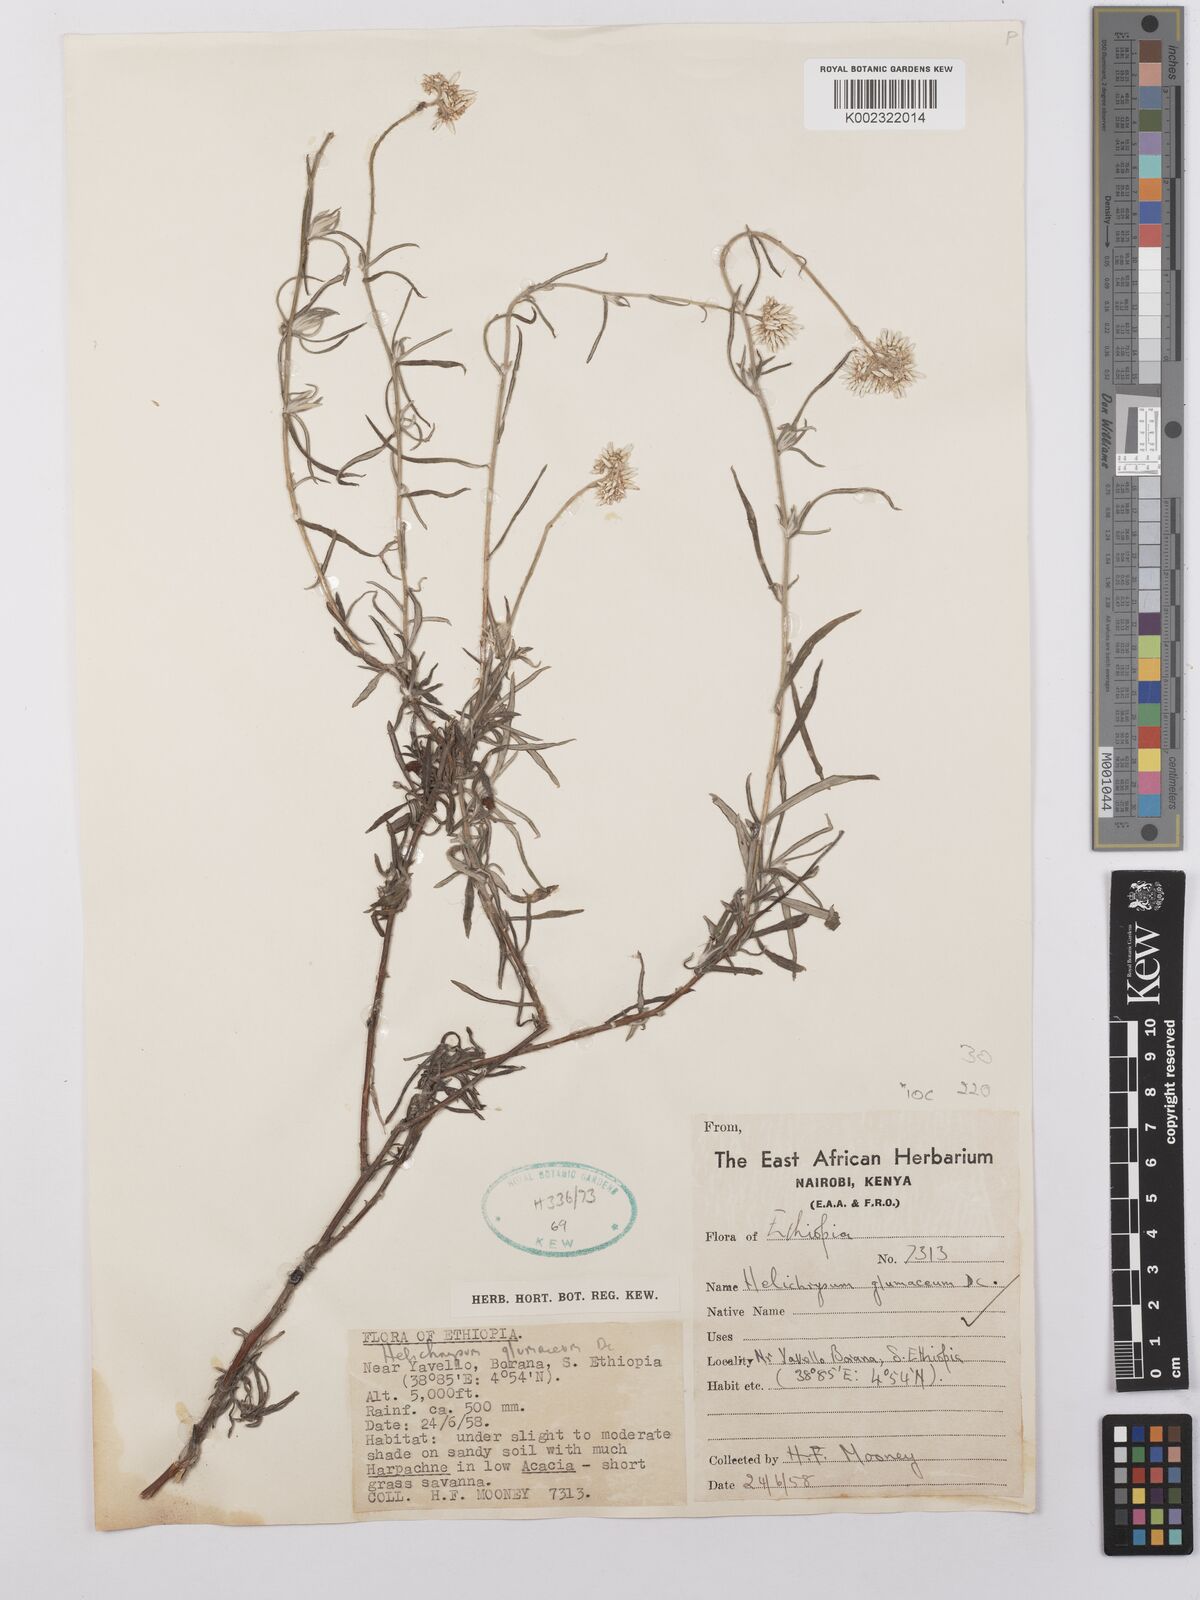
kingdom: Plantae
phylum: Tracheophyta
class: Magnoliopsida
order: Asterales
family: Asteraceae
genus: Helichrysum
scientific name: Helichrysum glumaceum
